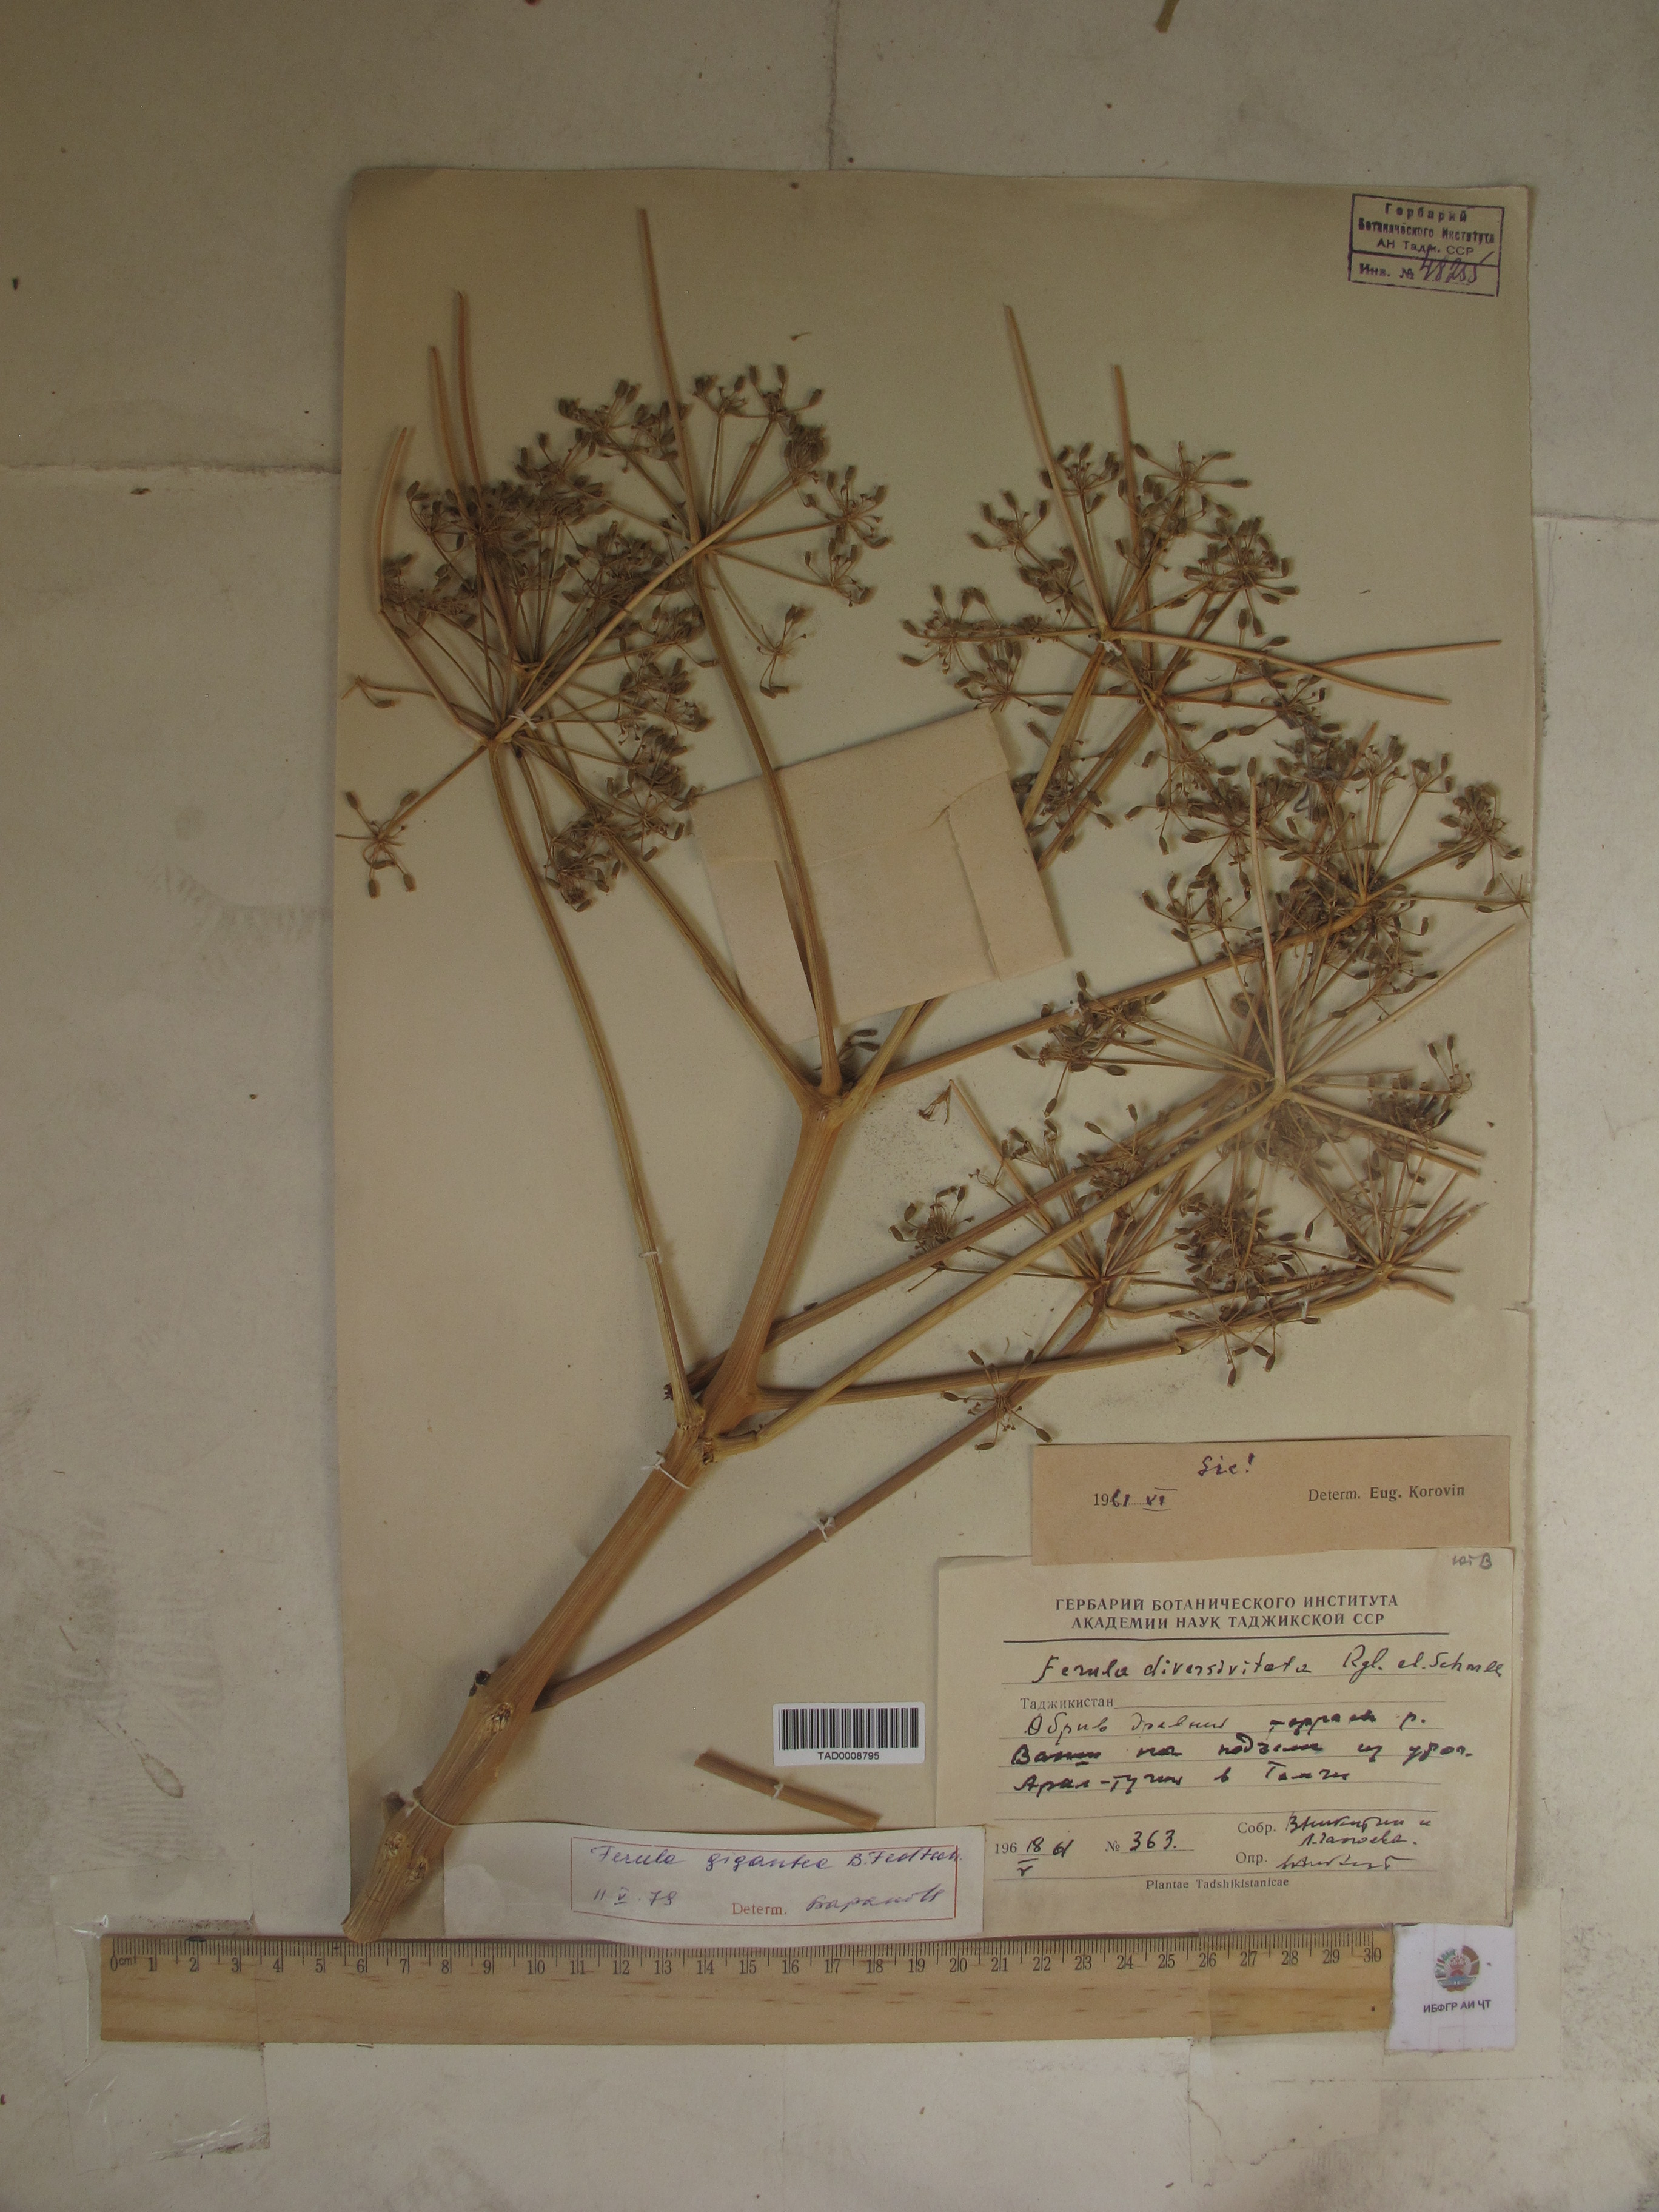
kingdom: Plantae
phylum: Tracheophyta
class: Magnoliopsida
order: Apiales
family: Apiaceae
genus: Ferula
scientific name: Ferula gigantea
